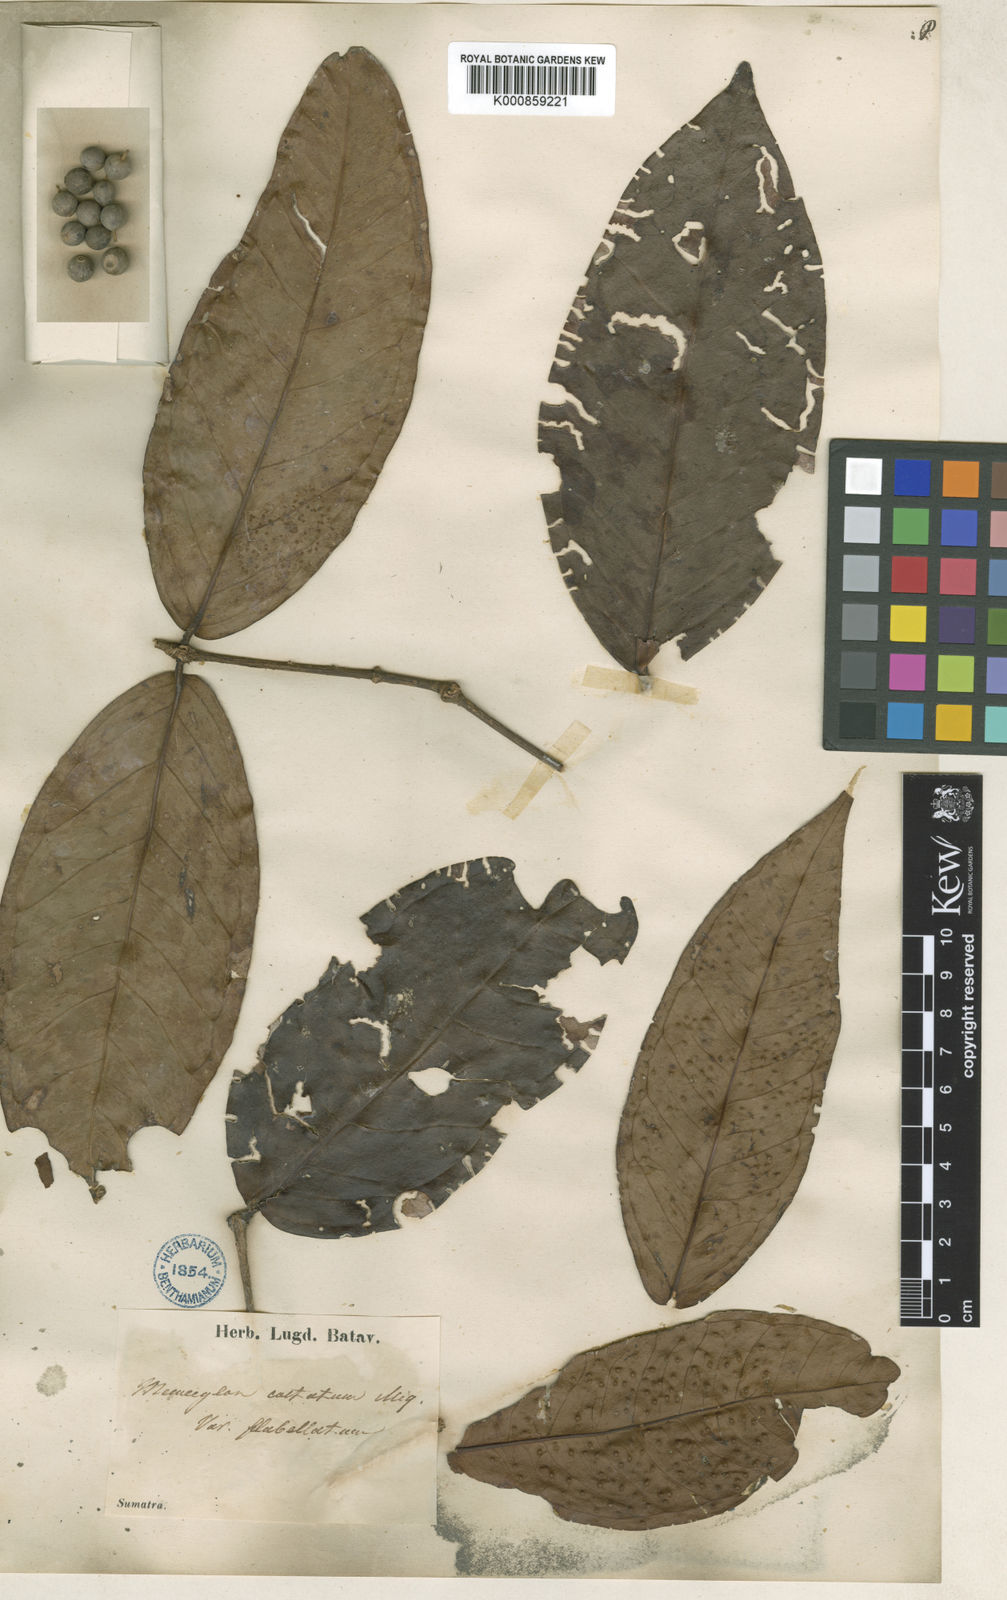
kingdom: Plantae
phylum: Tracheophyta
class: Magnoliopsida
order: Myrtales
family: Melastomataceae
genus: Memecylon
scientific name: Memecylon paniculatum
